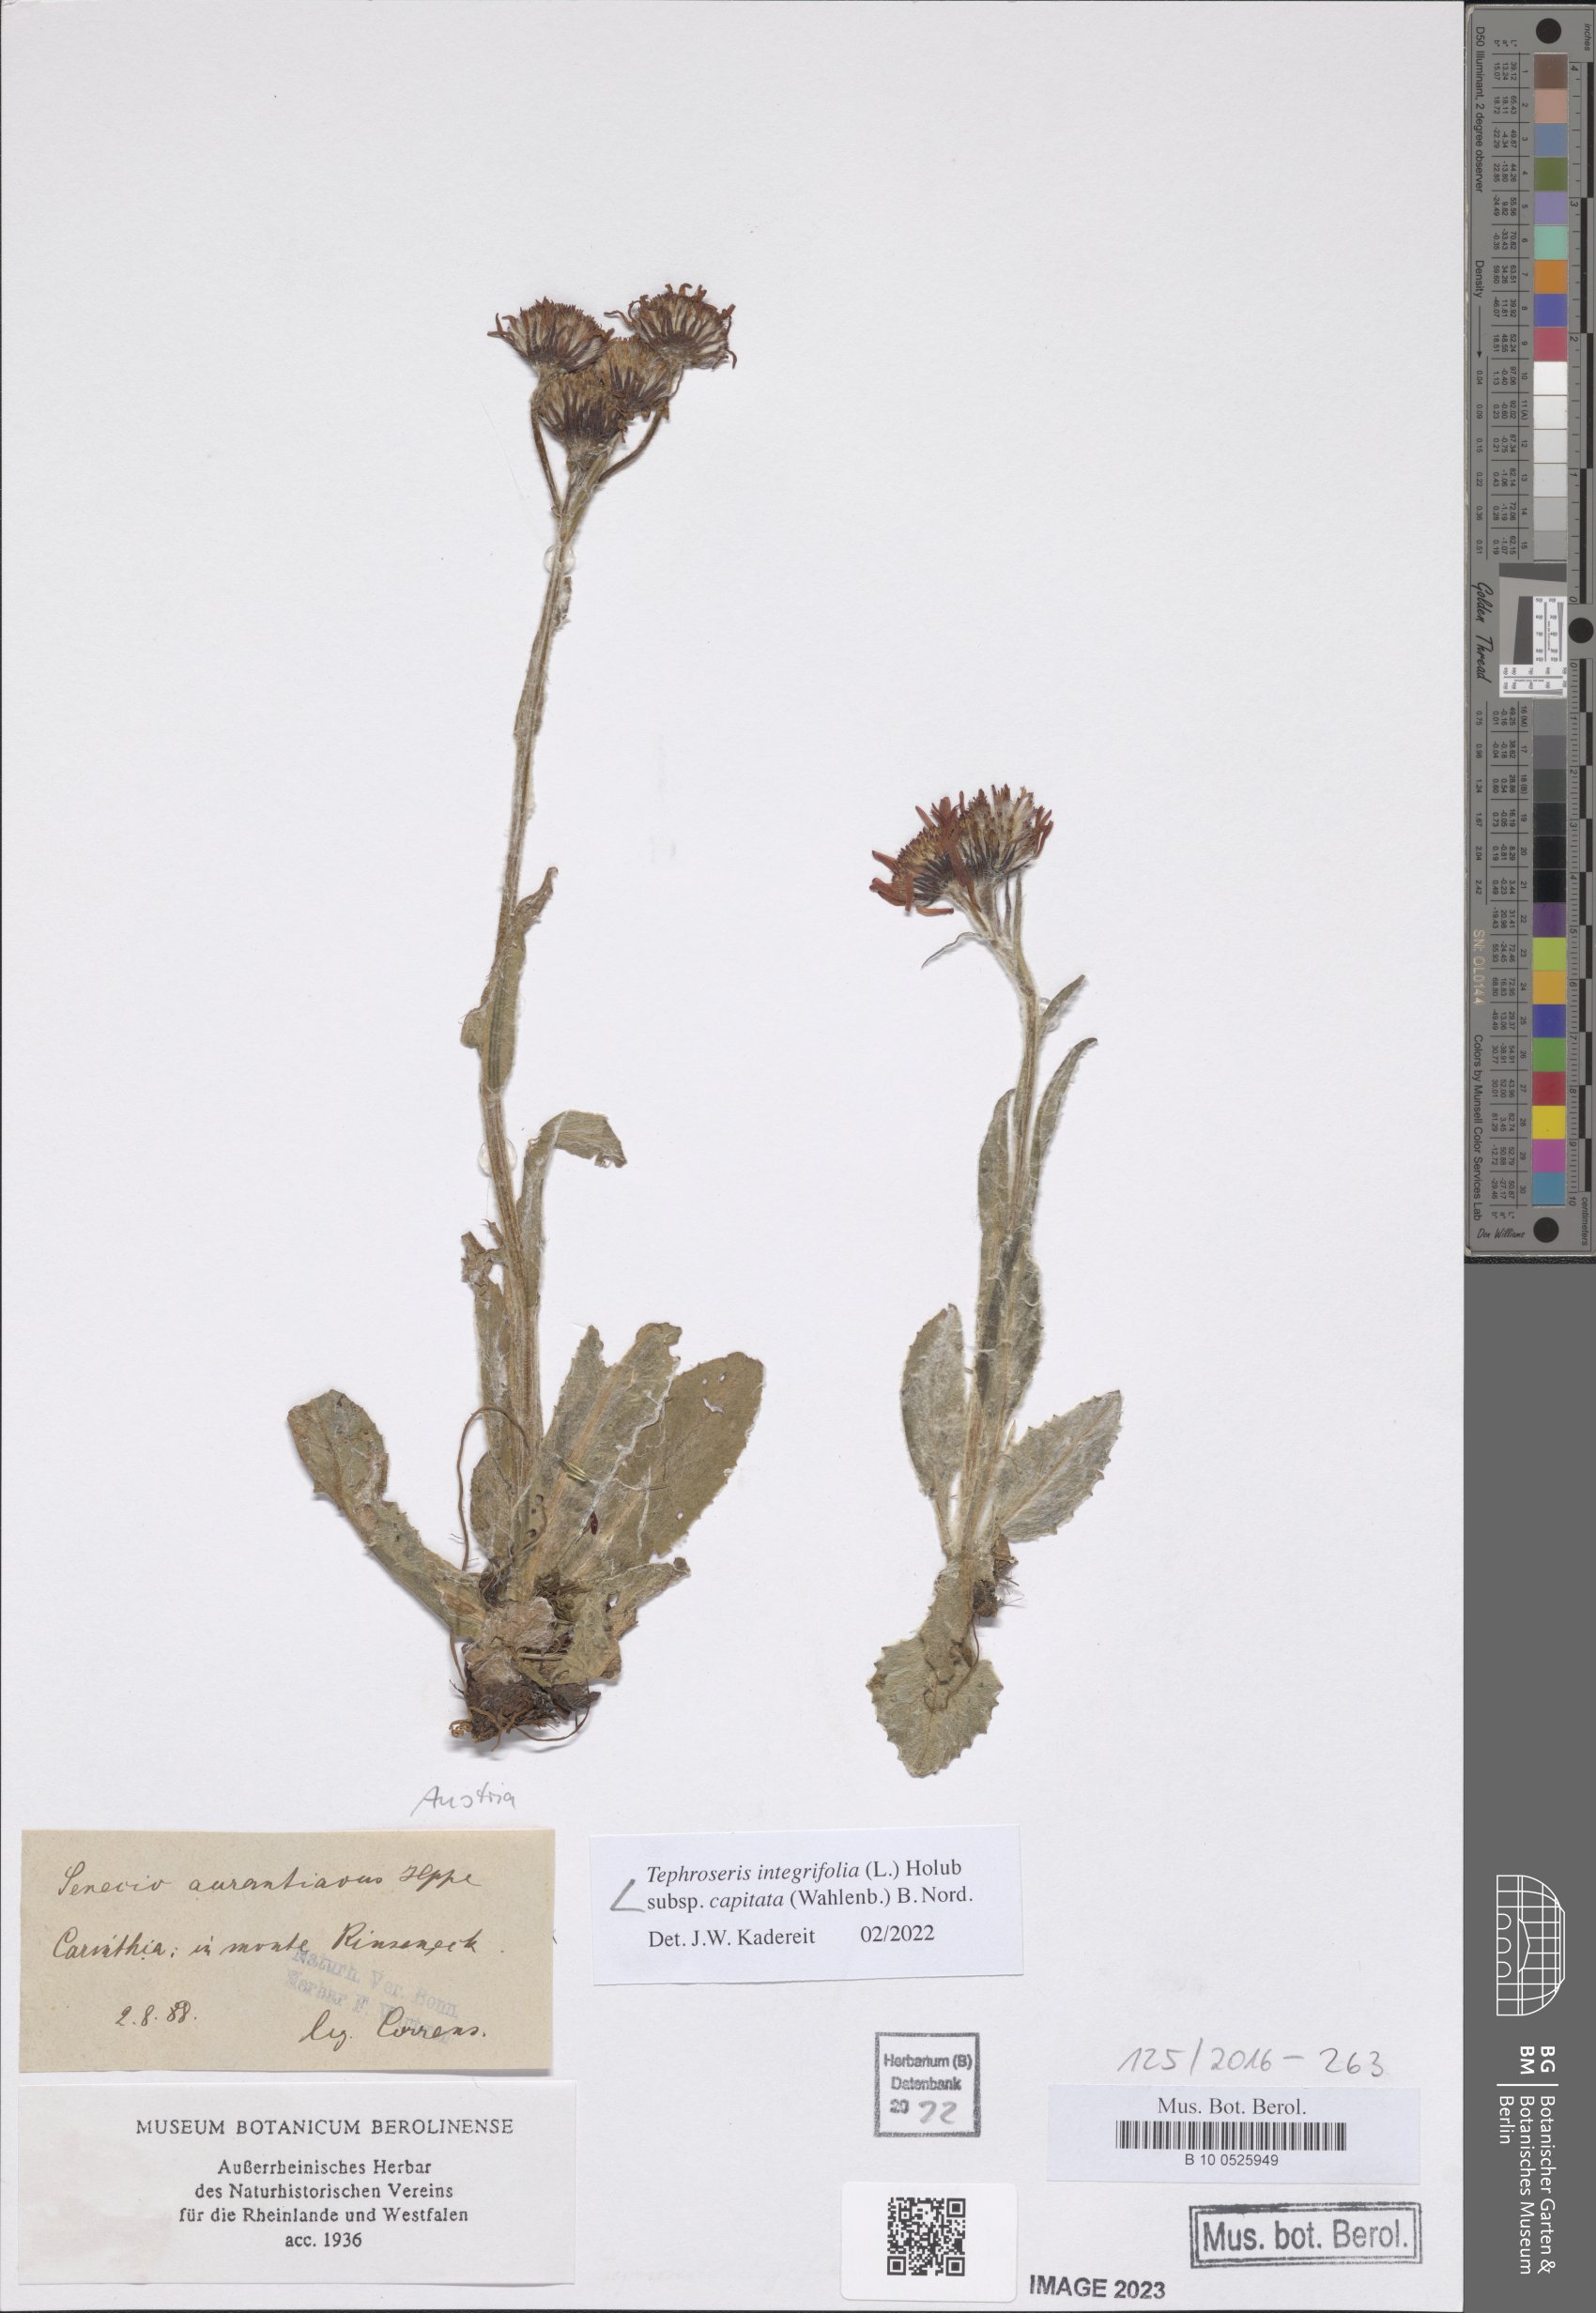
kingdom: Plantae
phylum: Tracheophyta
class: Magnoliopsida
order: Asterales
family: Asteraceae
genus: Tephroseris
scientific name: Tephroseris integrifolia
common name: Field fleawort
